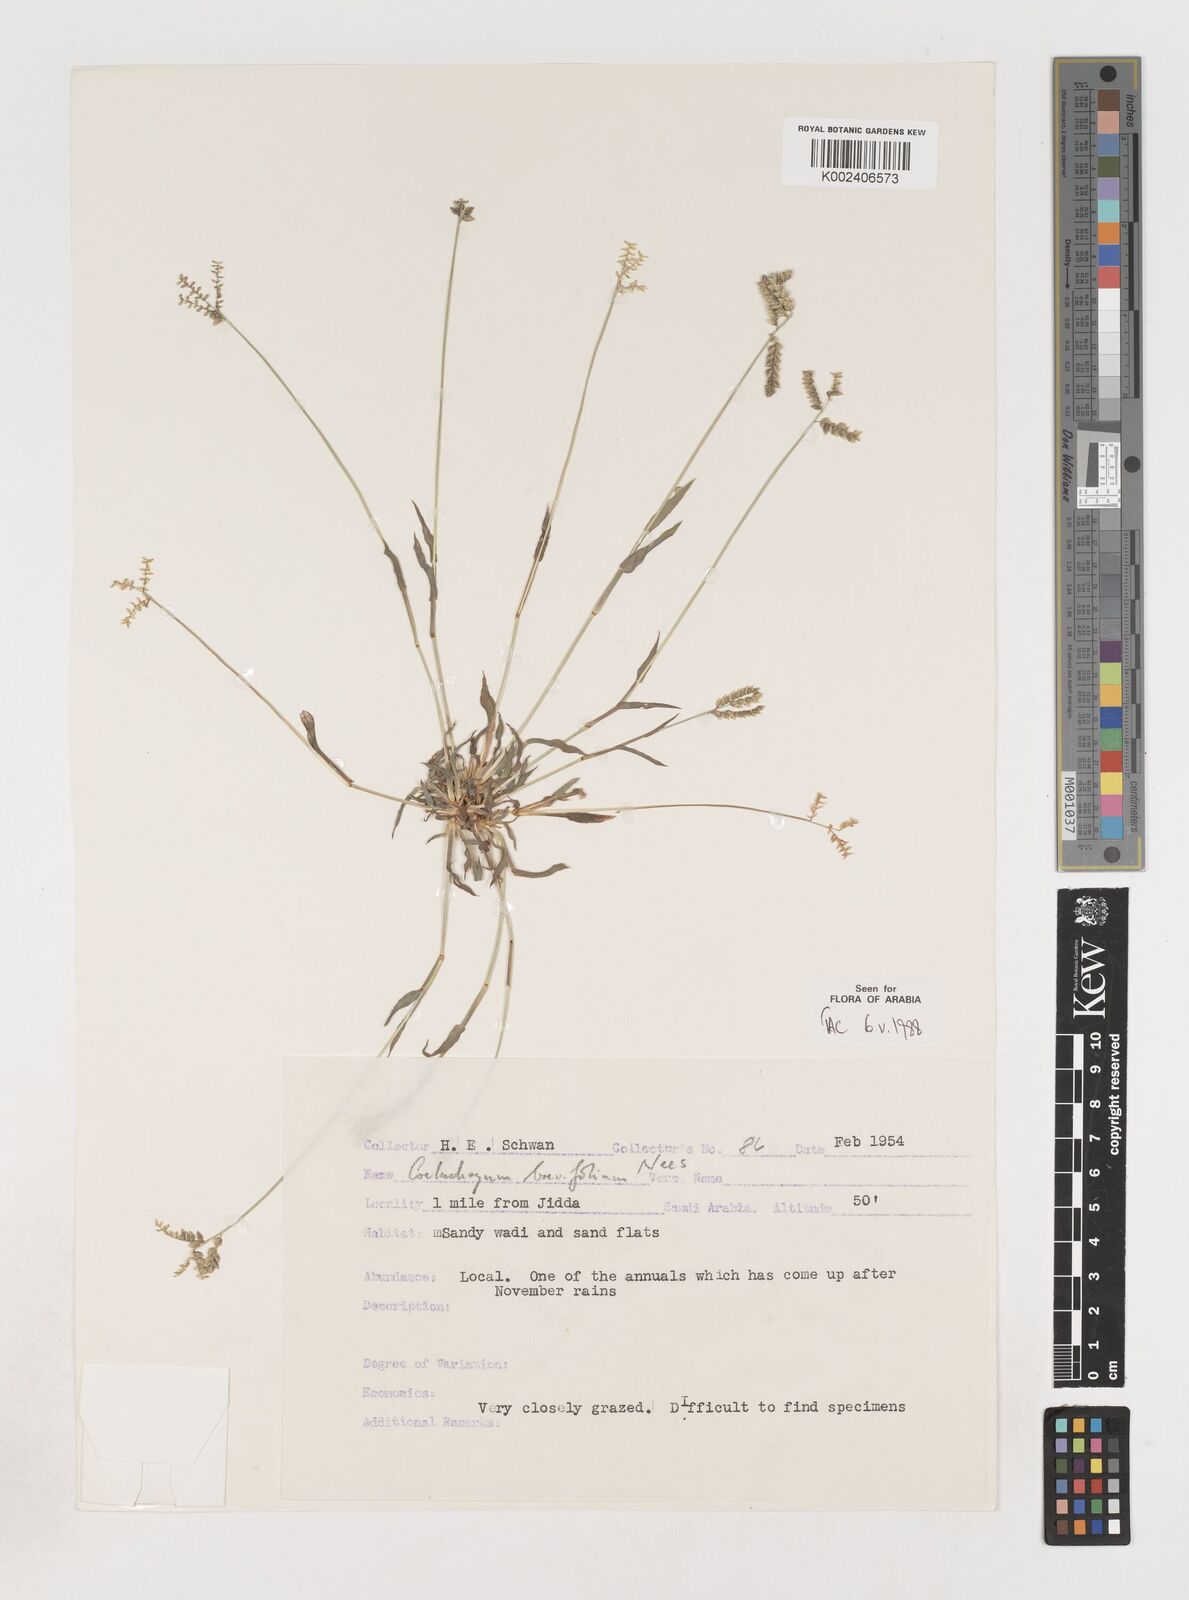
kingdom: Plantae
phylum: Tracheophyta
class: Liliopsida
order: Poales
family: Poaceae
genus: Coelachyrum
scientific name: Coelachyrum brevifolium
